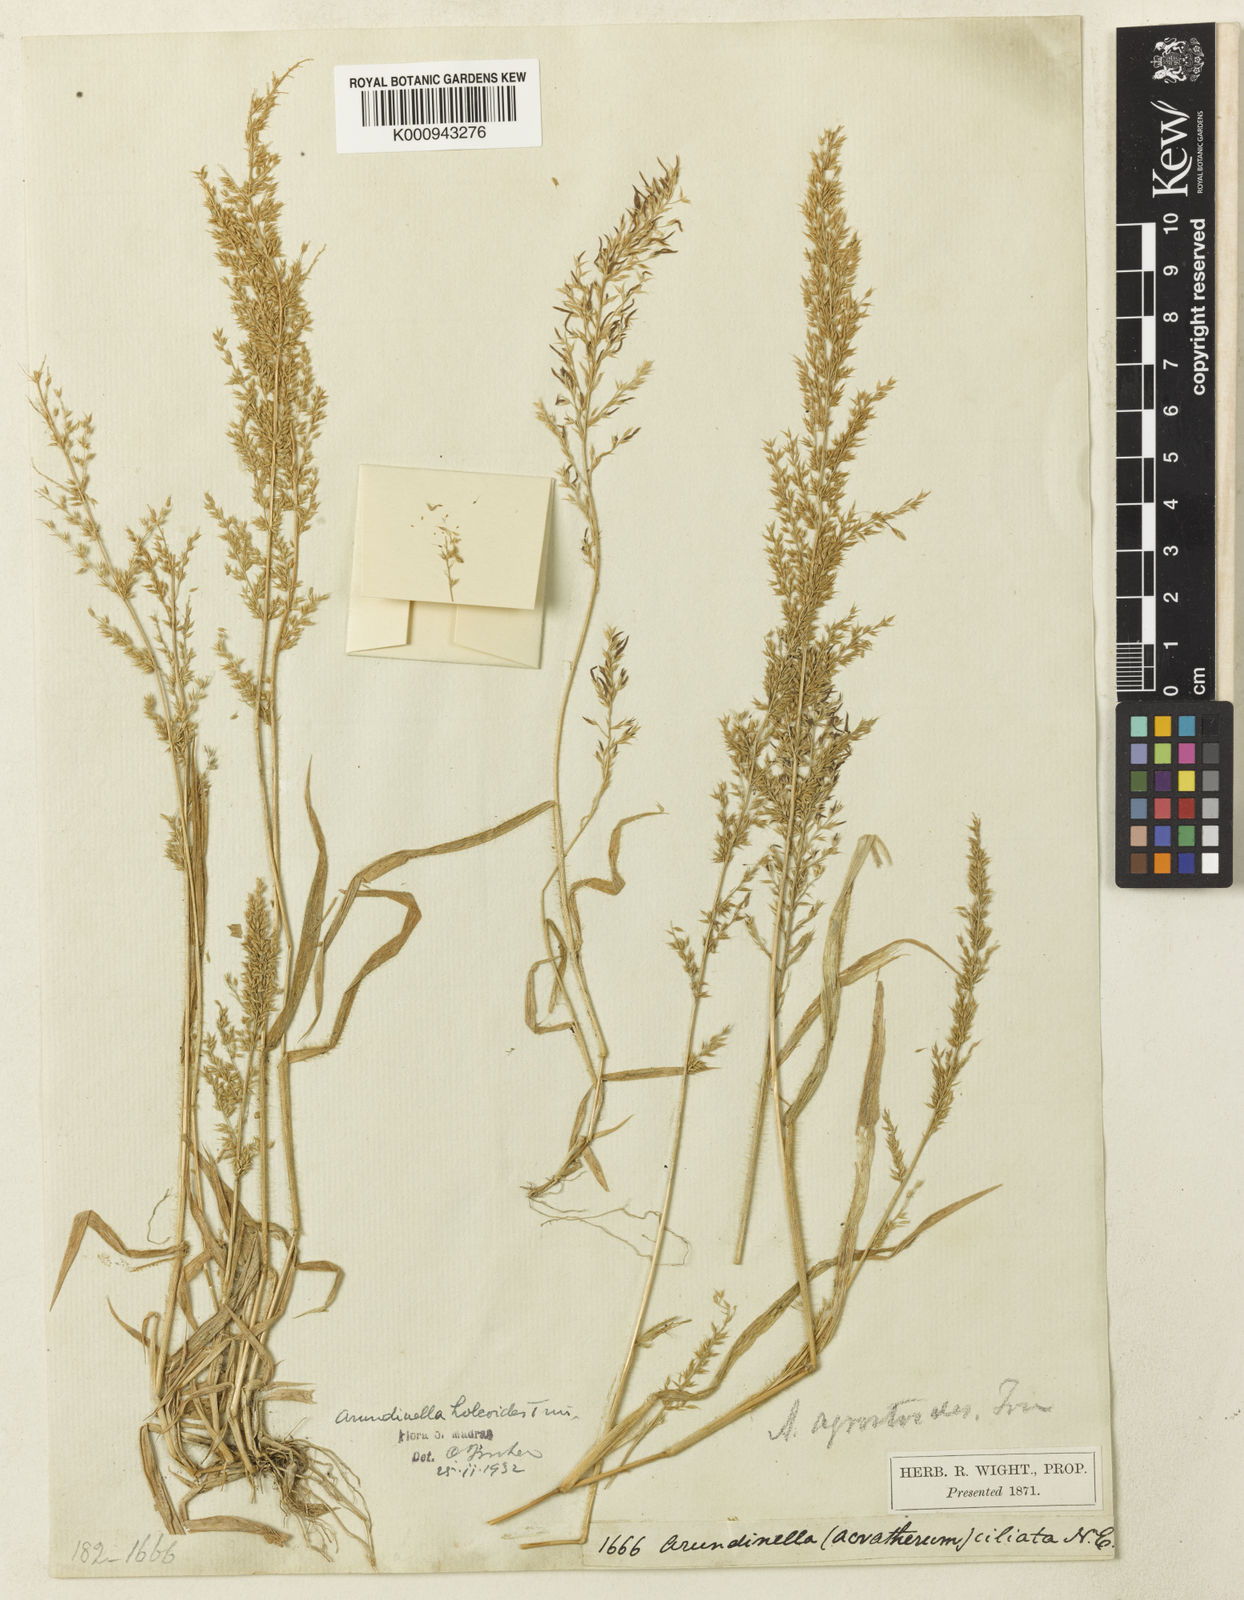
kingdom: Plantae
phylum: Tracheophyta
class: Liliopsida
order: Poales
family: Poaceae
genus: Arundinella
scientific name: Arundinella ciliata
